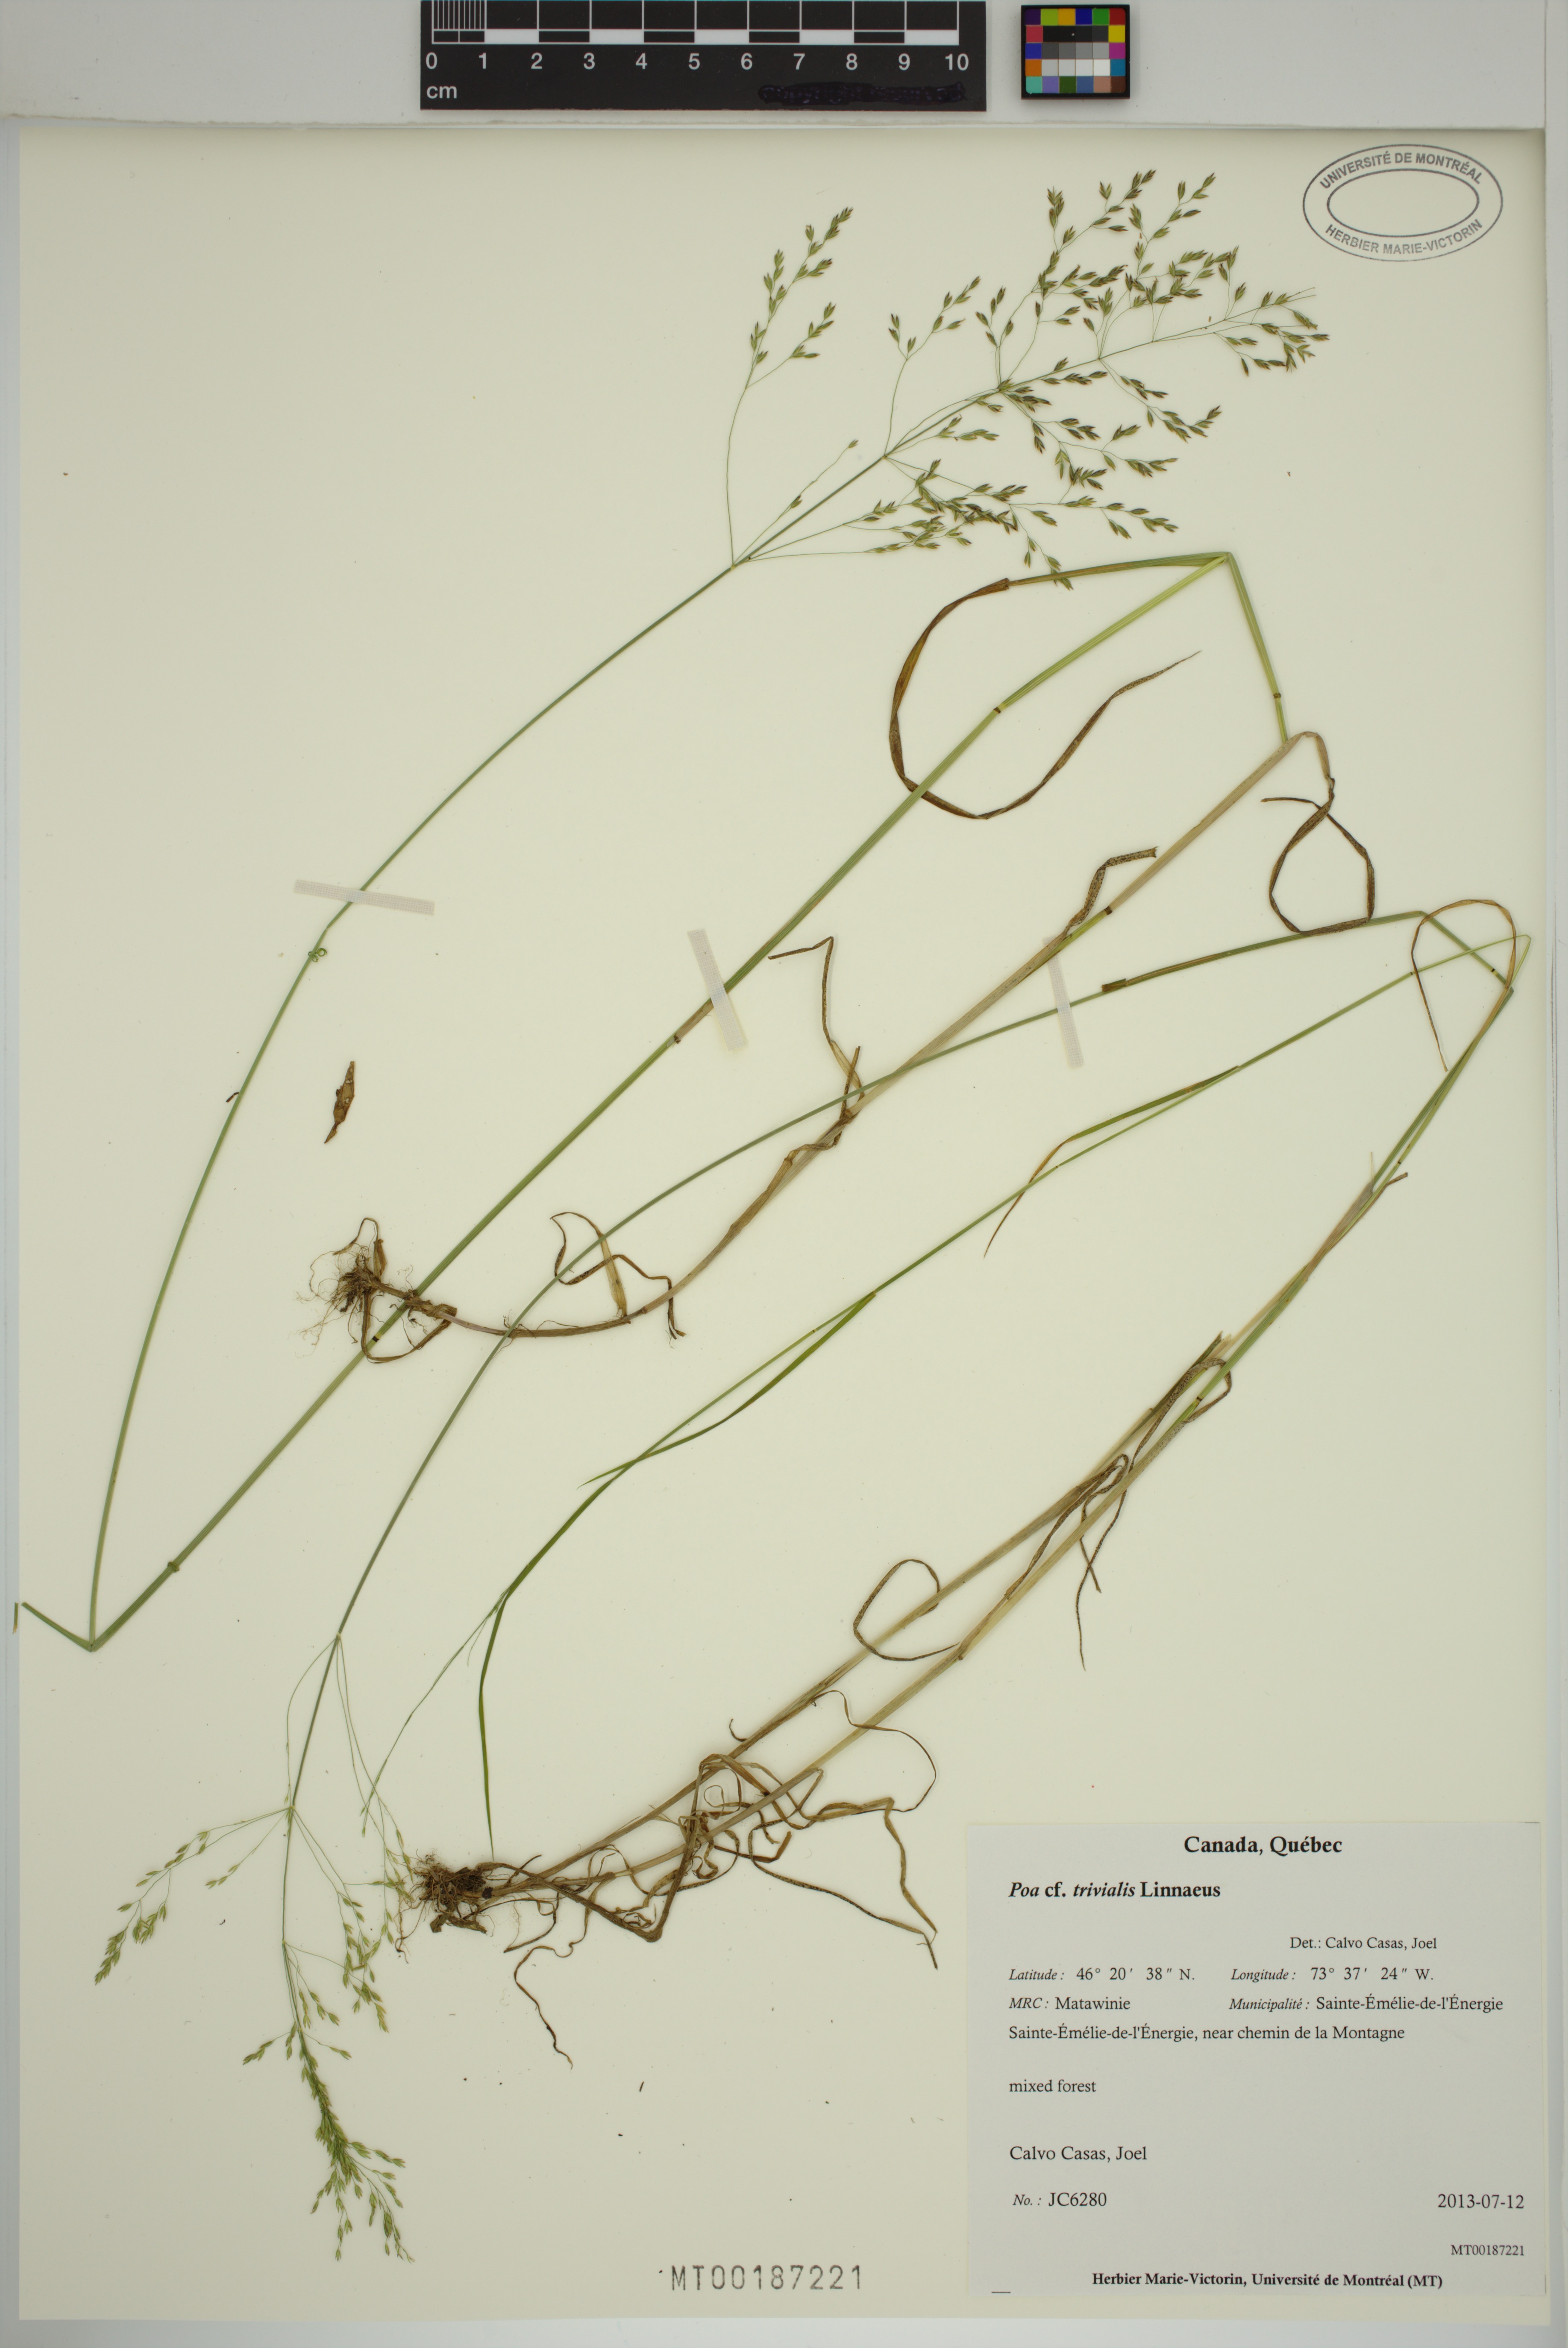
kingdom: Plantae
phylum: Tracheophyta
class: Liliopsida
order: Poales
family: Poaceae
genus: Poa
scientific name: Poa trivialis
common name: Rough bluegrass
